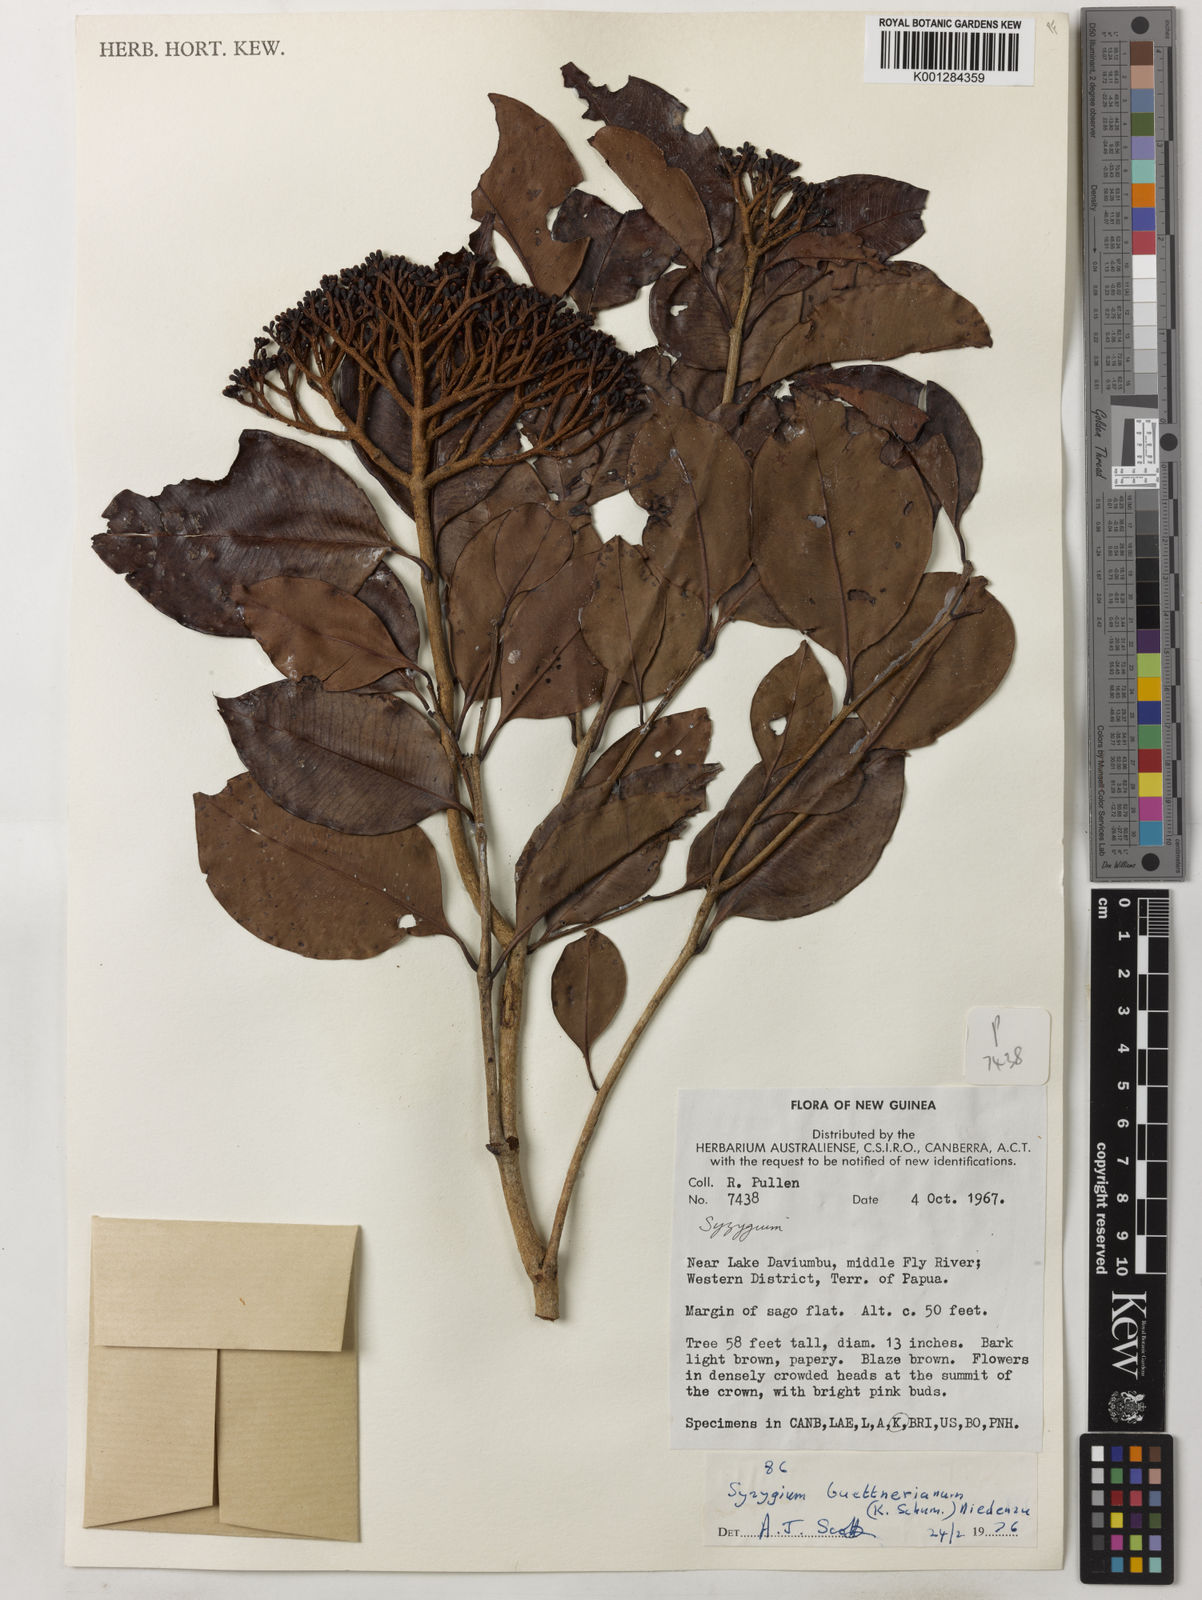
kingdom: Plantae
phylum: Tracheophyta
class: Magnoliopsida
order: Myrtales
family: Myrtaceae
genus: Syzygium
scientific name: Syzygium buettnerianum
